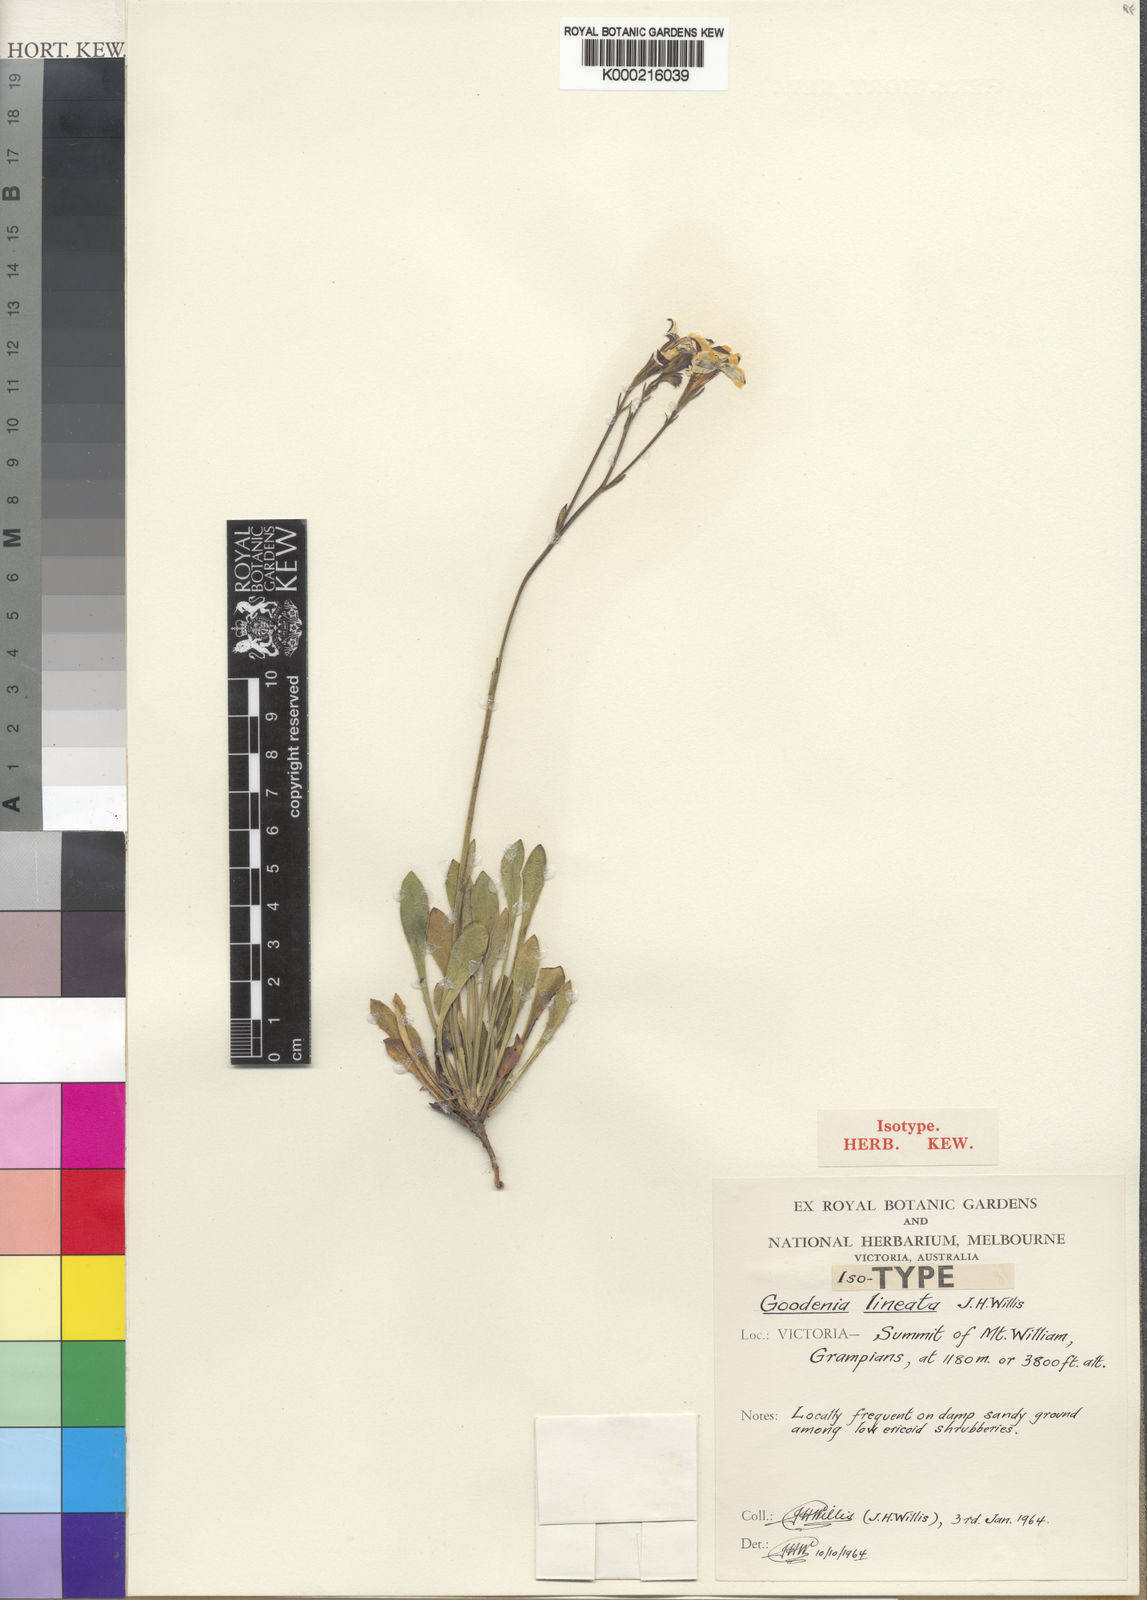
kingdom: Plantae
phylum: Tracheophyta
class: Magnoliopsida
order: Asterales
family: Goodeniaceae
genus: Goodenia
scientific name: Goodenia lineata
